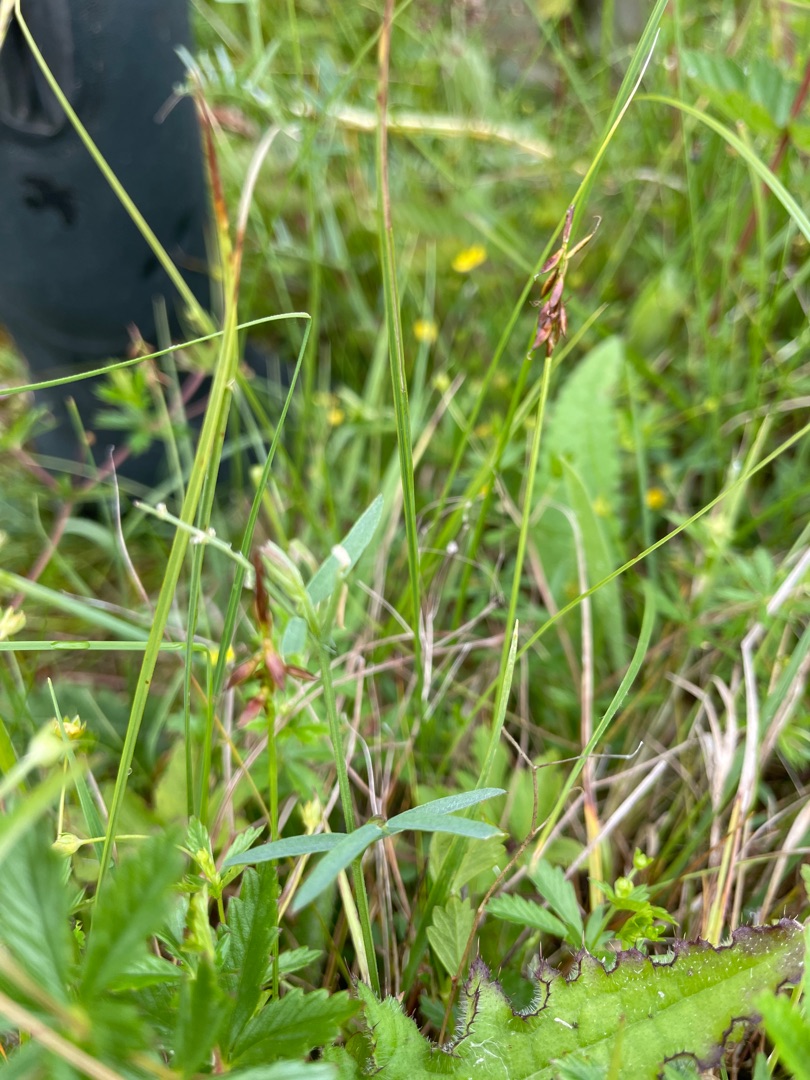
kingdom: Plantae
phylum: Tracheophyta
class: Liliopsida
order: Poales
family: Cyperaceae
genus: Carex
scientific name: Carex pulicaris
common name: Loppe-star
